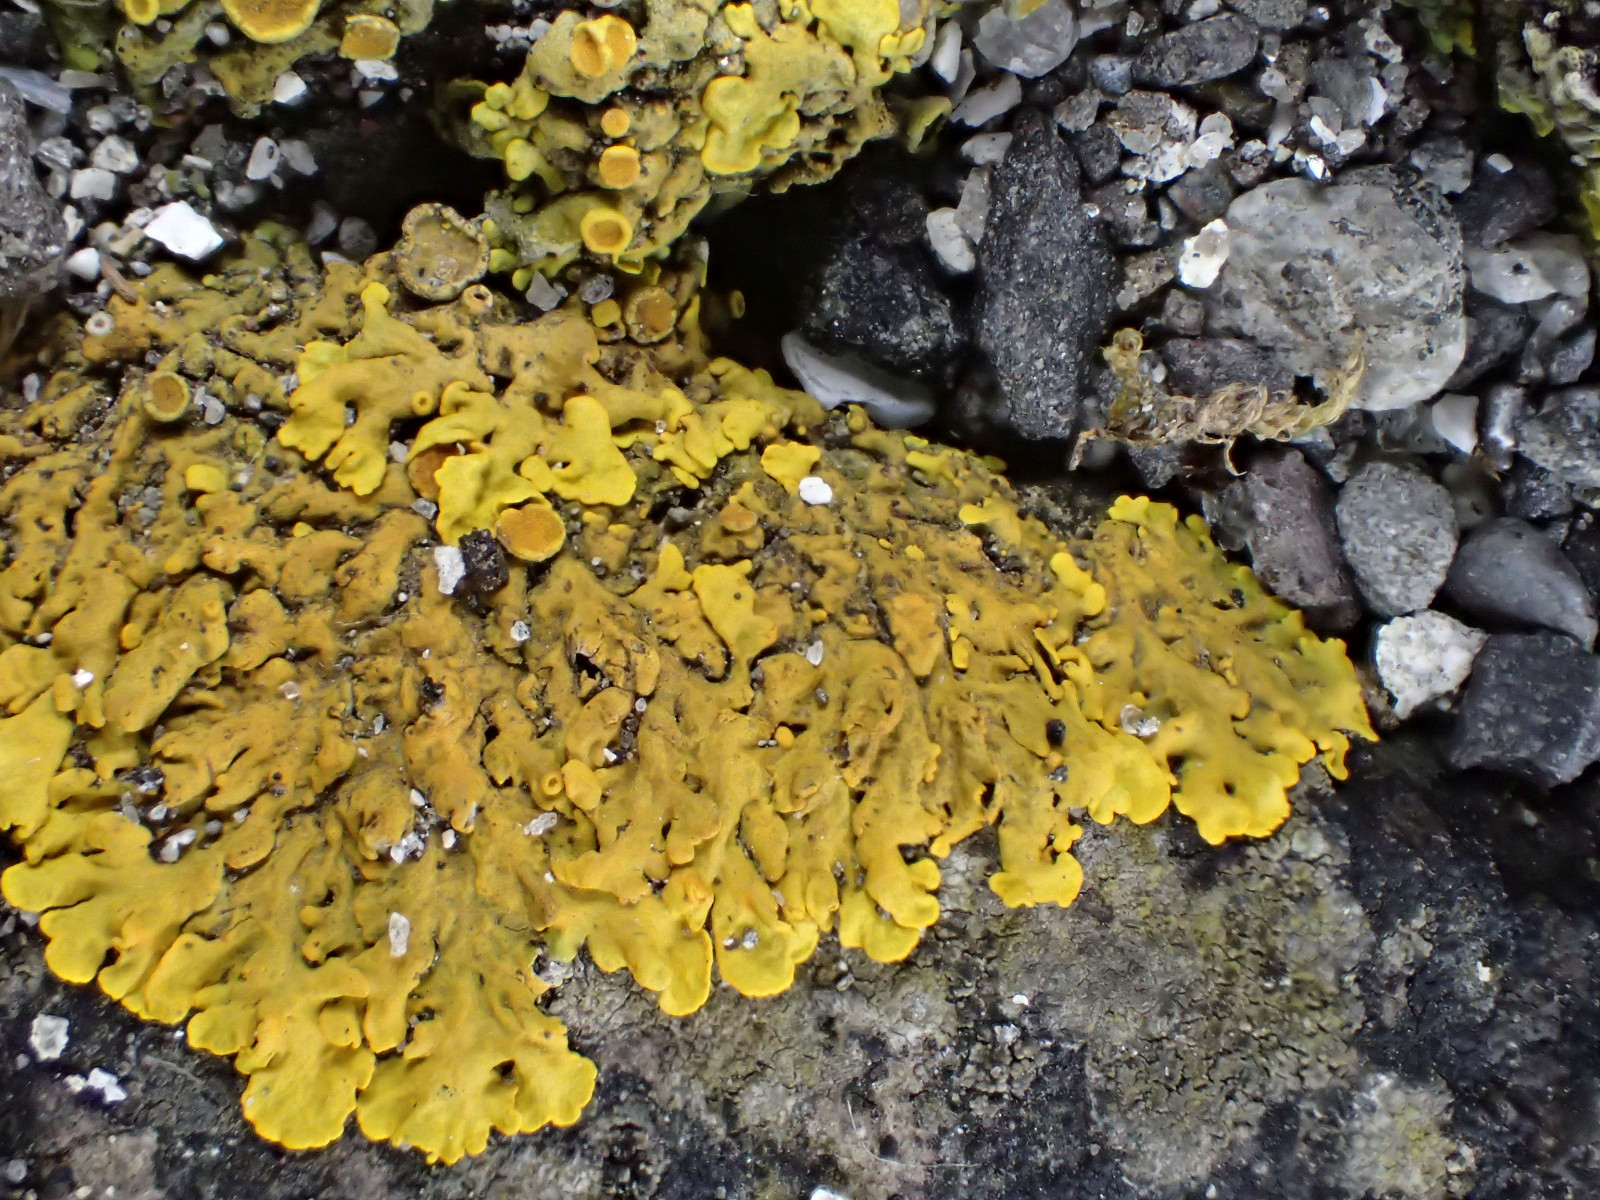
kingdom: Fungi
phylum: Ascomycota
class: Lecanoromycetes
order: Teloschistales
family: Teloschistaceae
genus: Xanthoria
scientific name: Xanthoria parietina
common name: almindelig væggelav
